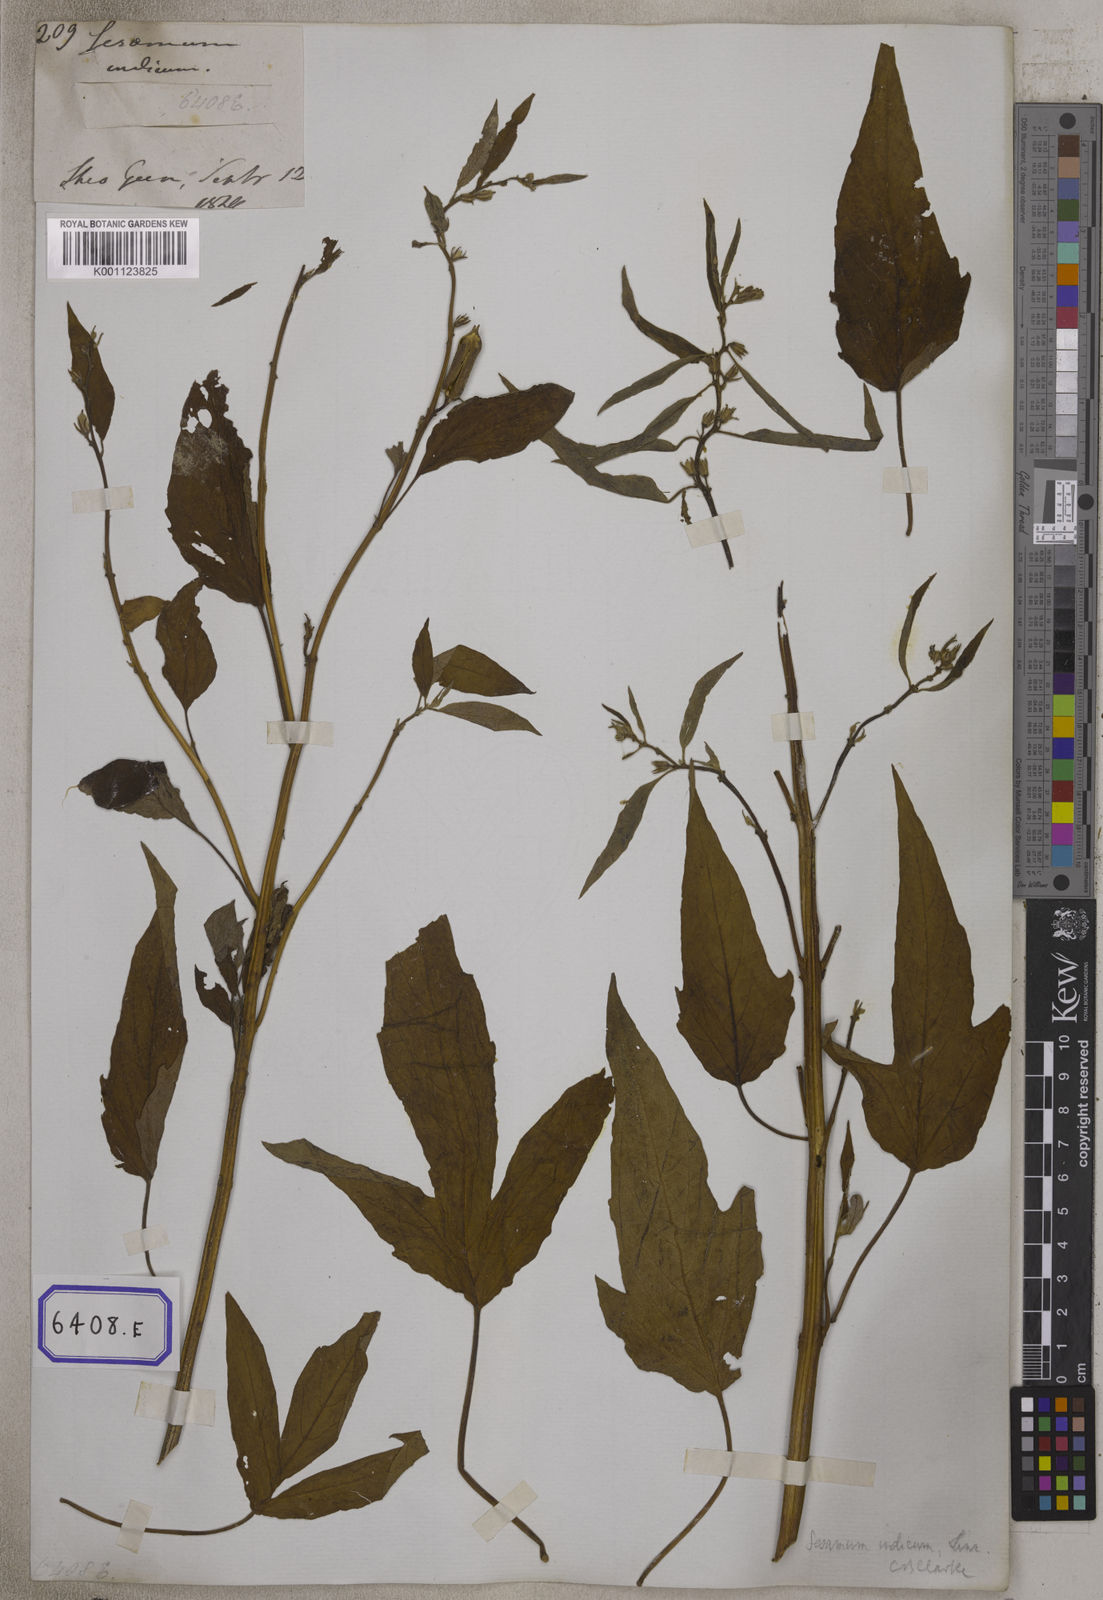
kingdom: Plantae
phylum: Tracheophyta
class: Magnoliopsida
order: Lamiales
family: Pedaliaceae
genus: Sesamum
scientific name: Sesamum indicum
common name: Sesame
